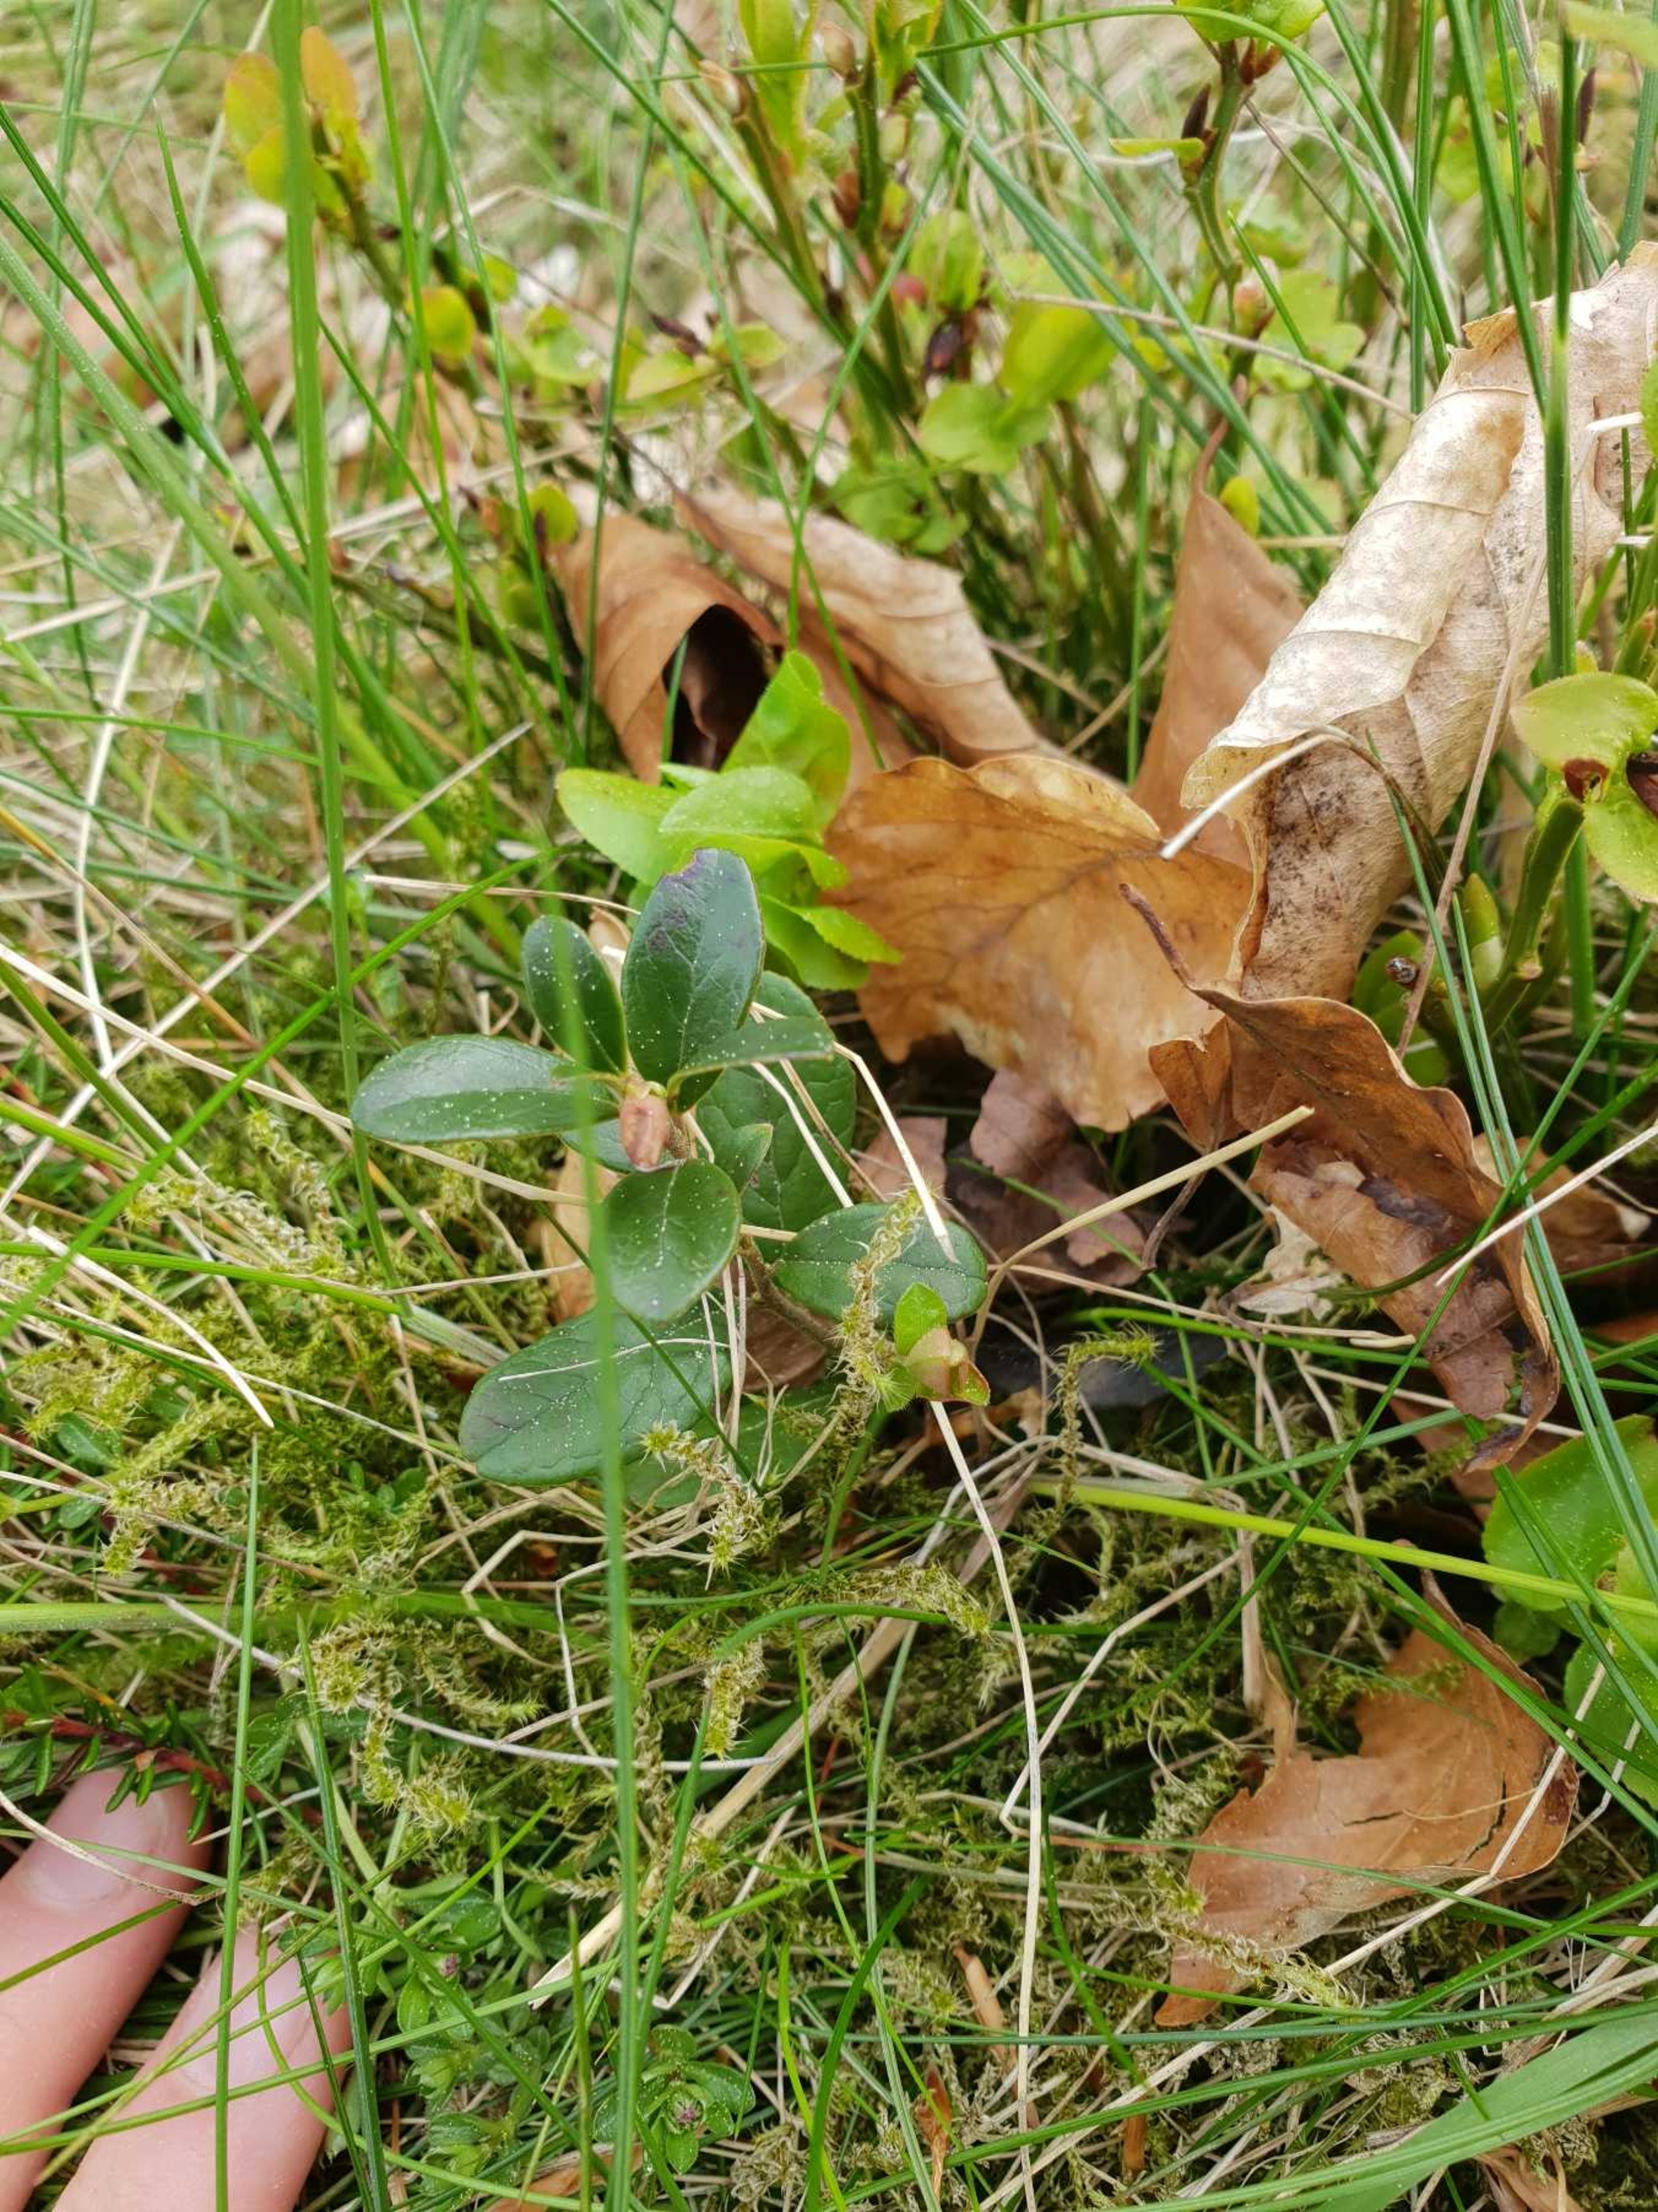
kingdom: Plantae
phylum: Tracheophyta
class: Magnoliopsida
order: Ericales
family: Ericaceae
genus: Vaccinium
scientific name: Vaccinium vitis-idaea
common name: Tyttebær
